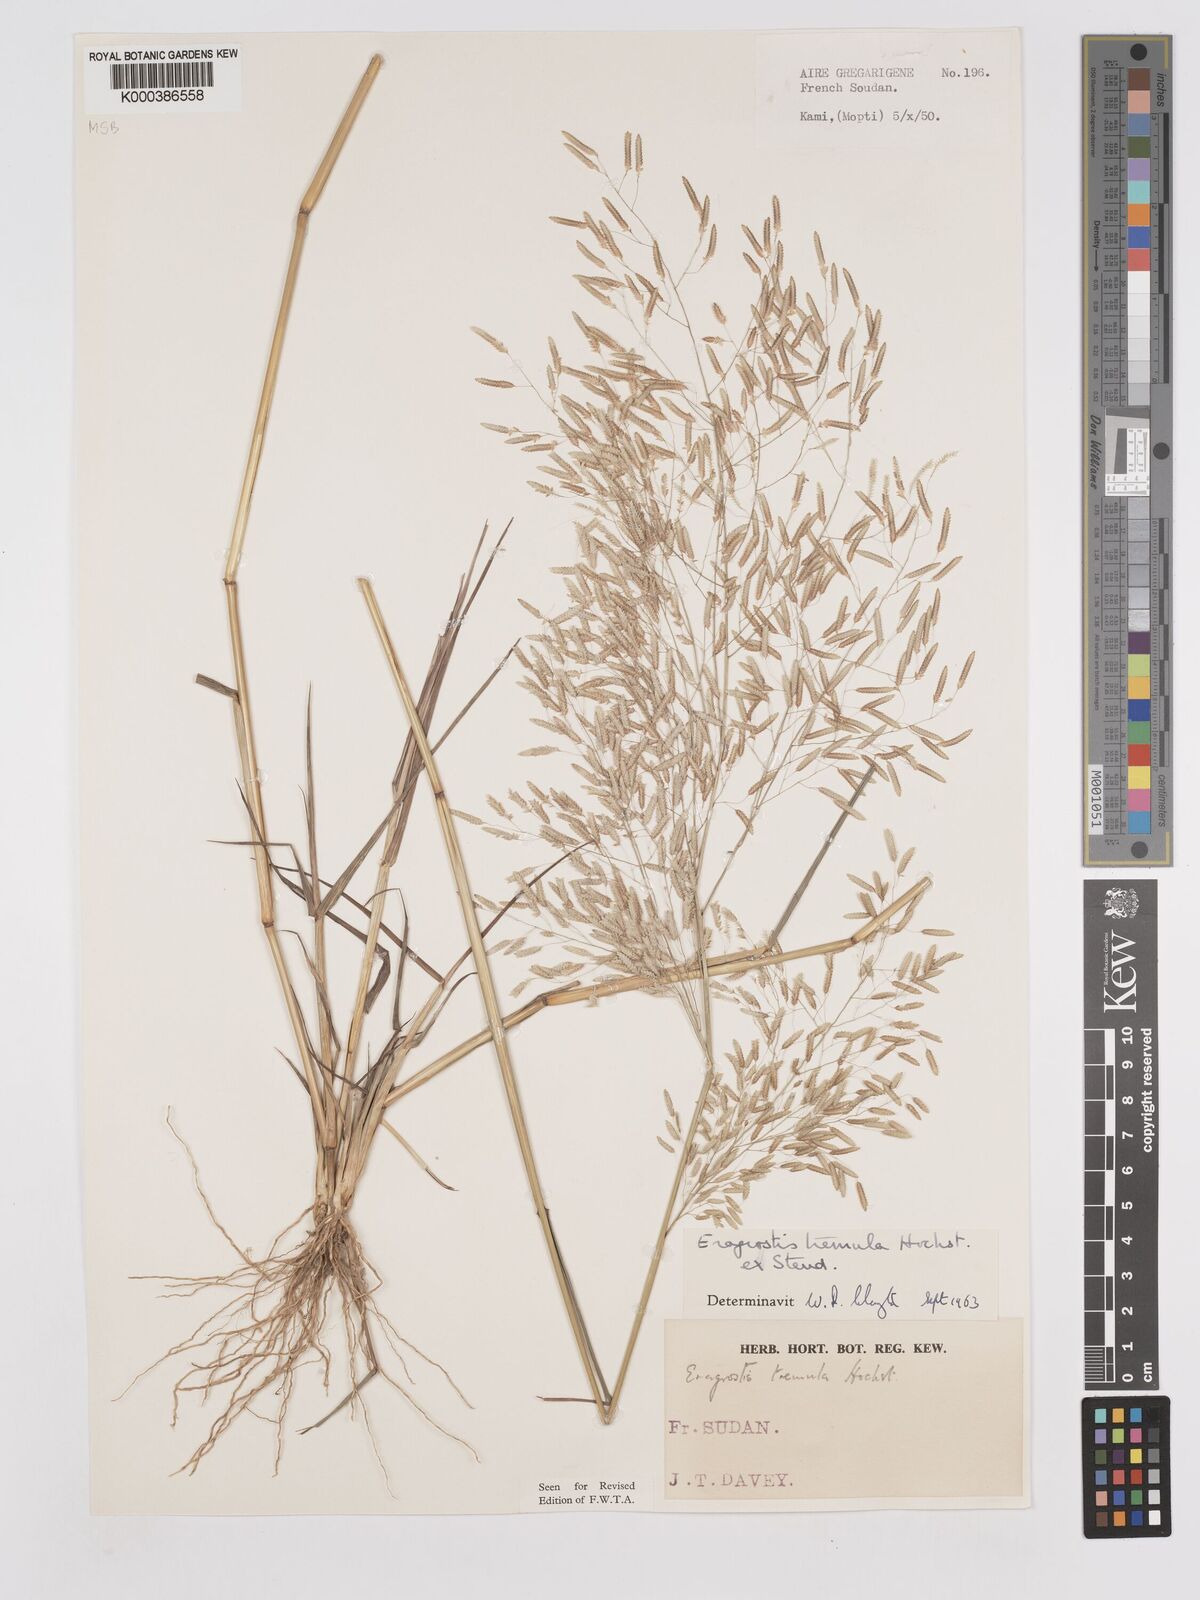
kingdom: Plantae
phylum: Tracheophyta
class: Liliopsida
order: Poales
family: Poaceae
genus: Eragrostis
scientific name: Eragrostis tremula
